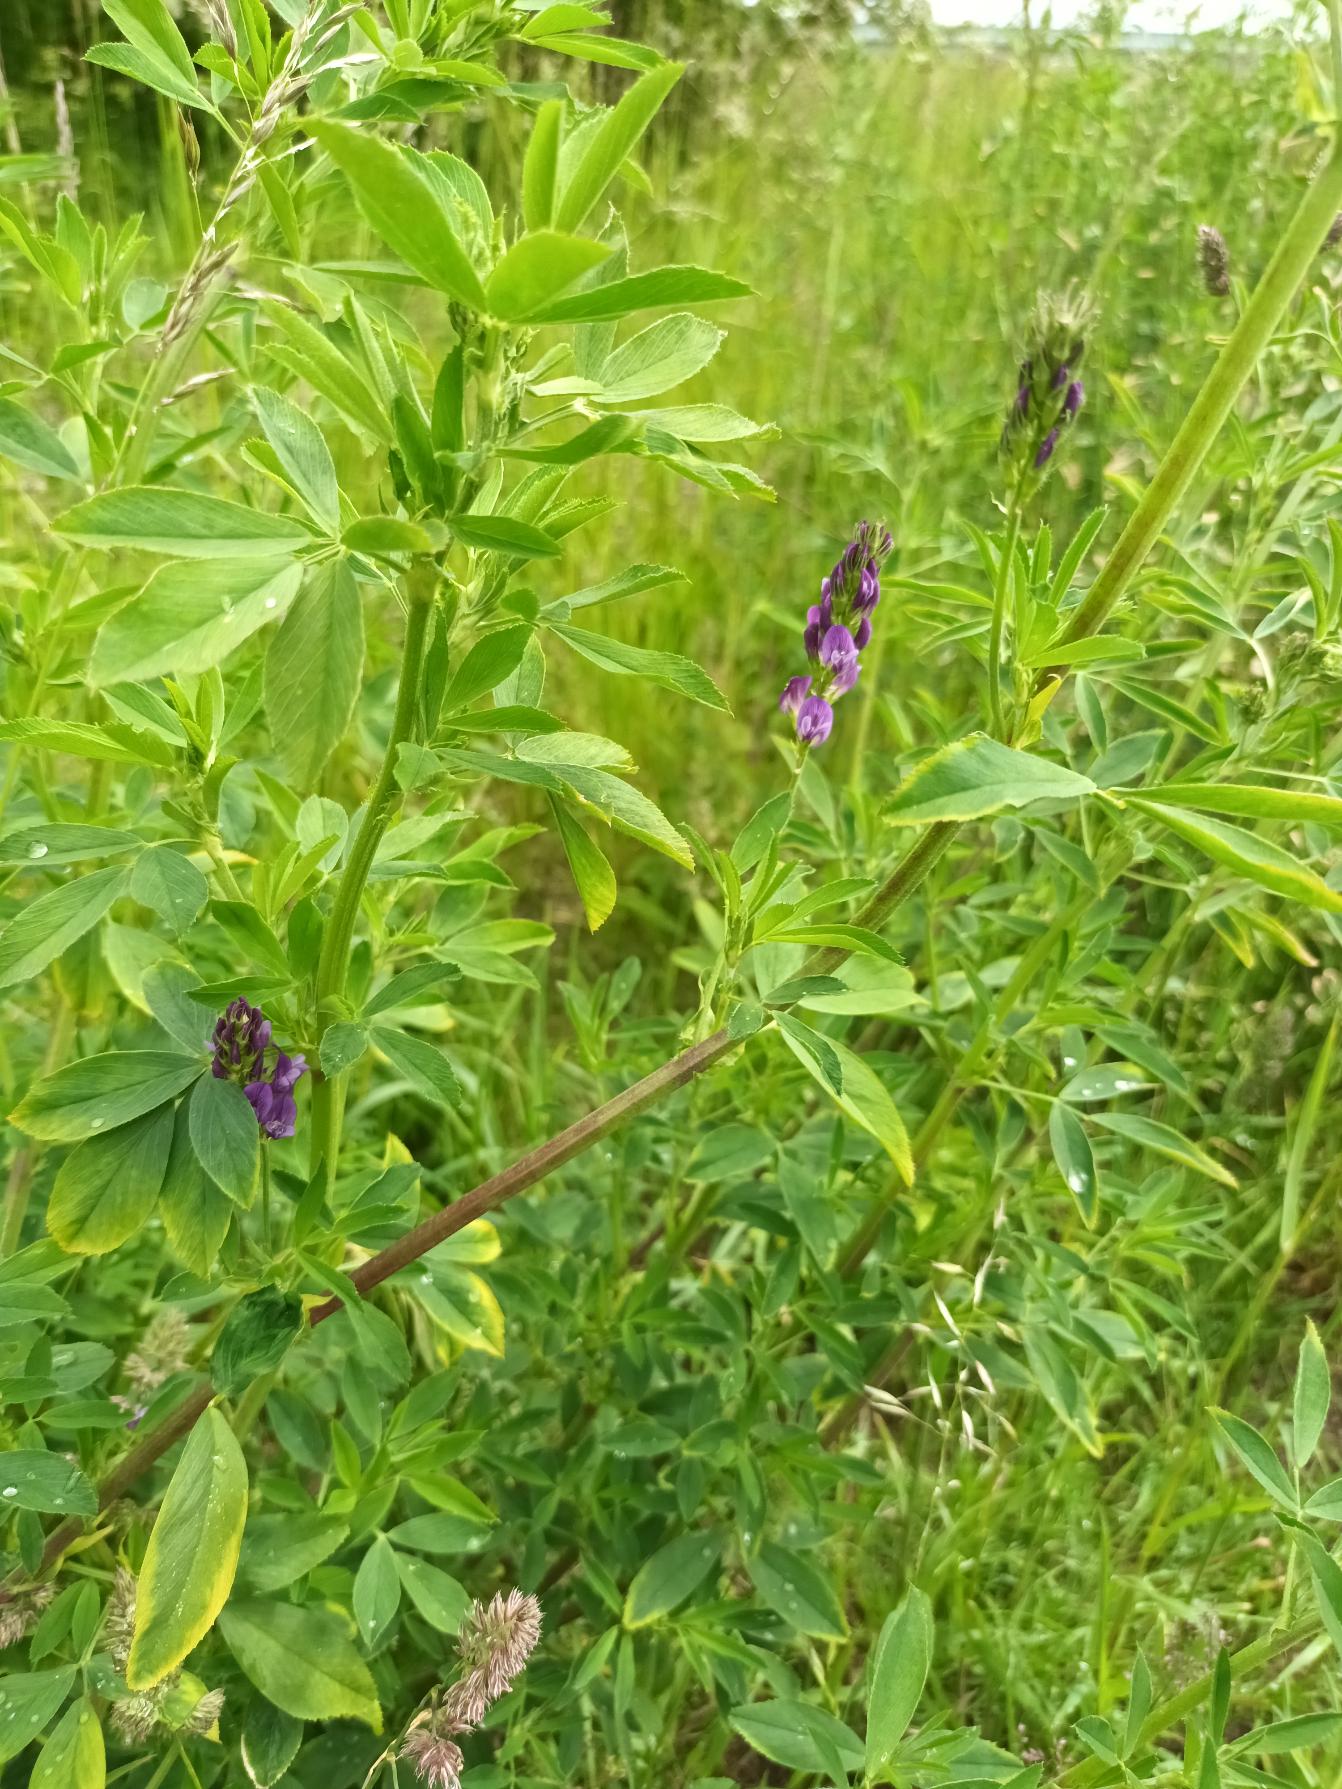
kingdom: Plantae
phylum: Tracheophyta
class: Magnoliopsida
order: Fabales
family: Fabaceae
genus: Medicago
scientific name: Medicago sativa
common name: Lucerne
